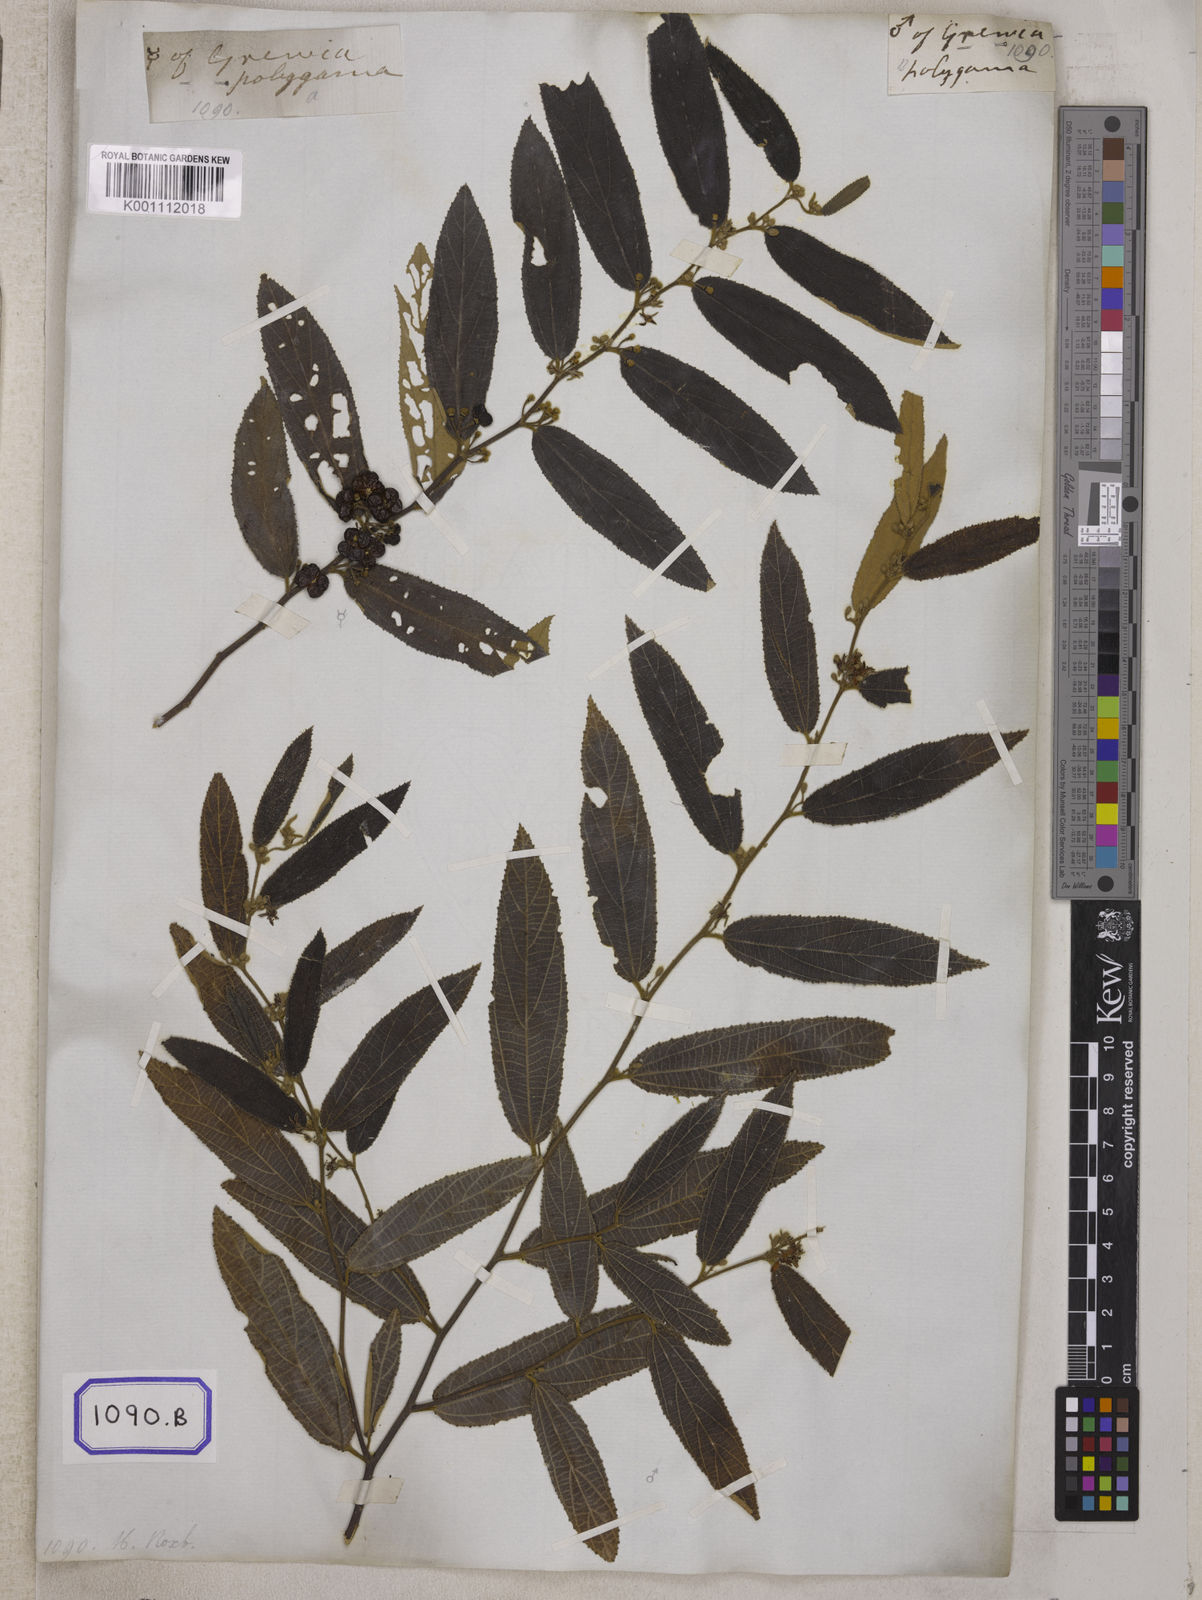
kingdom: Plantae
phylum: Tracheophyta
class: Magnoliopsida
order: Malvales
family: Malvaceae
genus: Grewia
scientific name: Grewia
